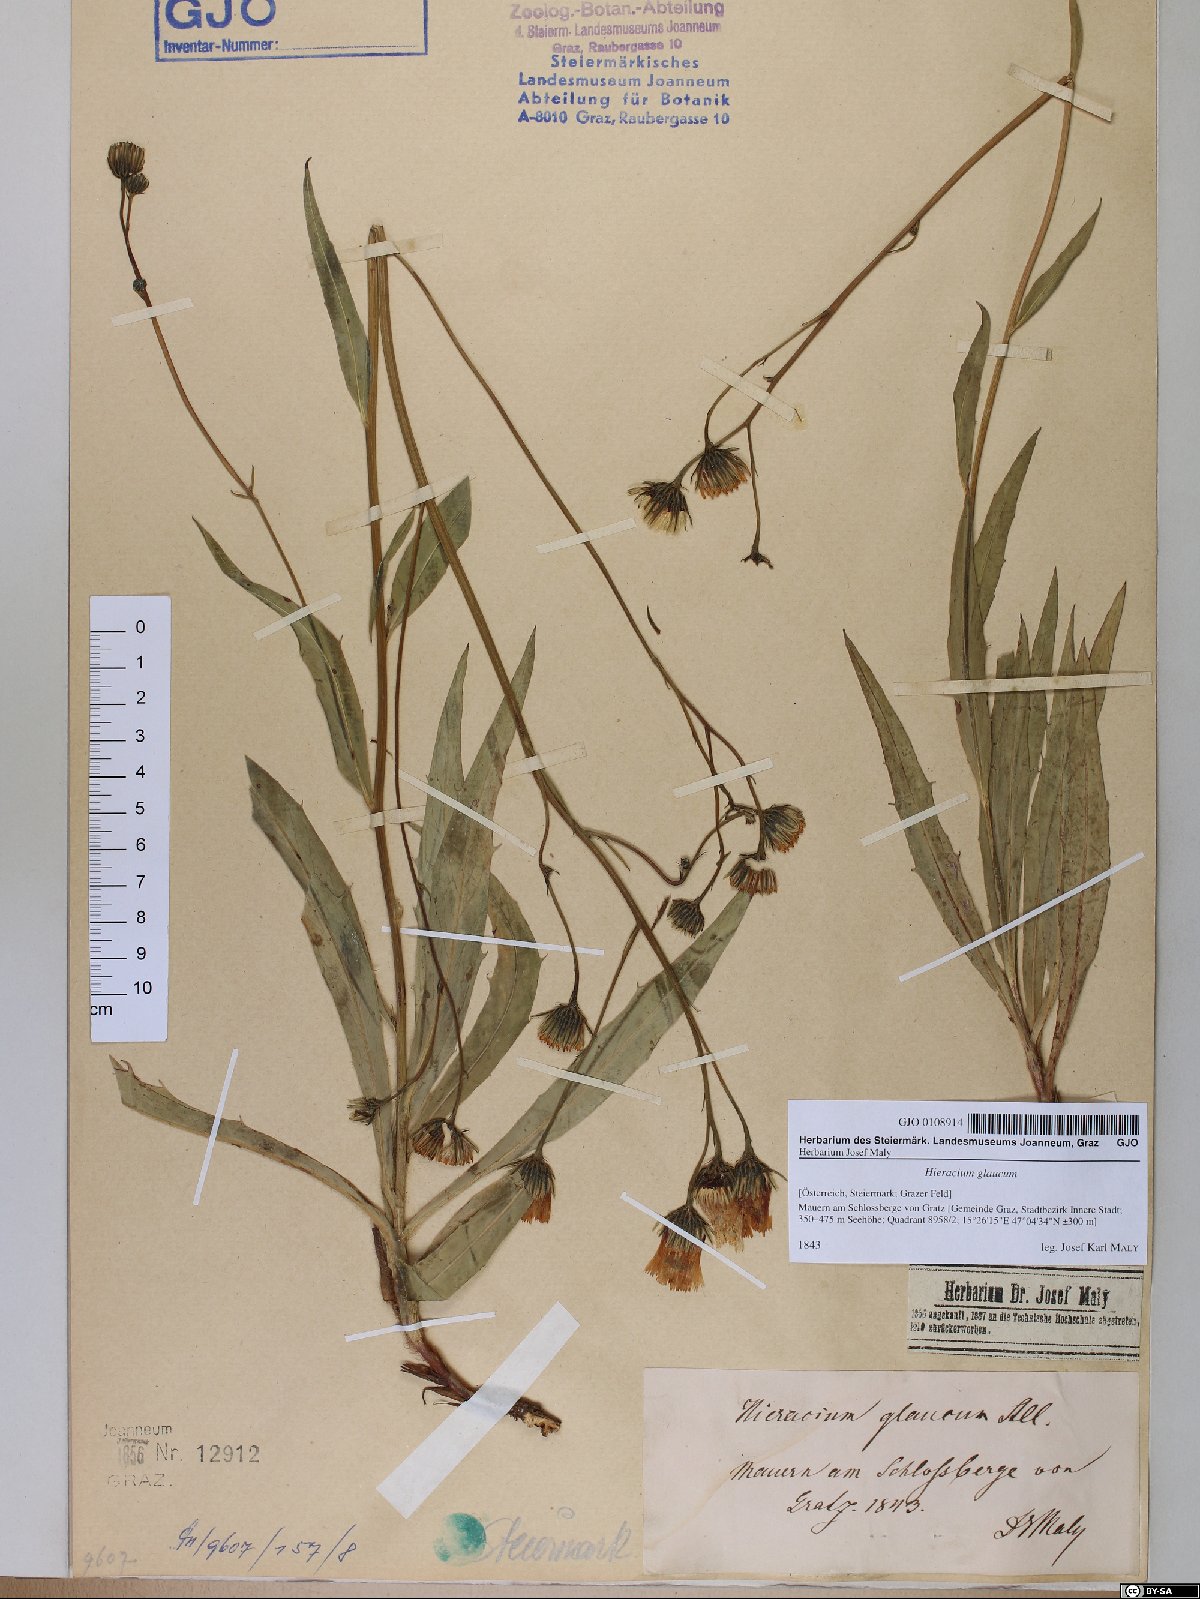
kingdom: Plantae
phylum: Tracheophyta
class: Magnoliopsida
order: Asterales
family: Asteraceae
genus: Hieracium
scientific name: Hieracium glaucum
